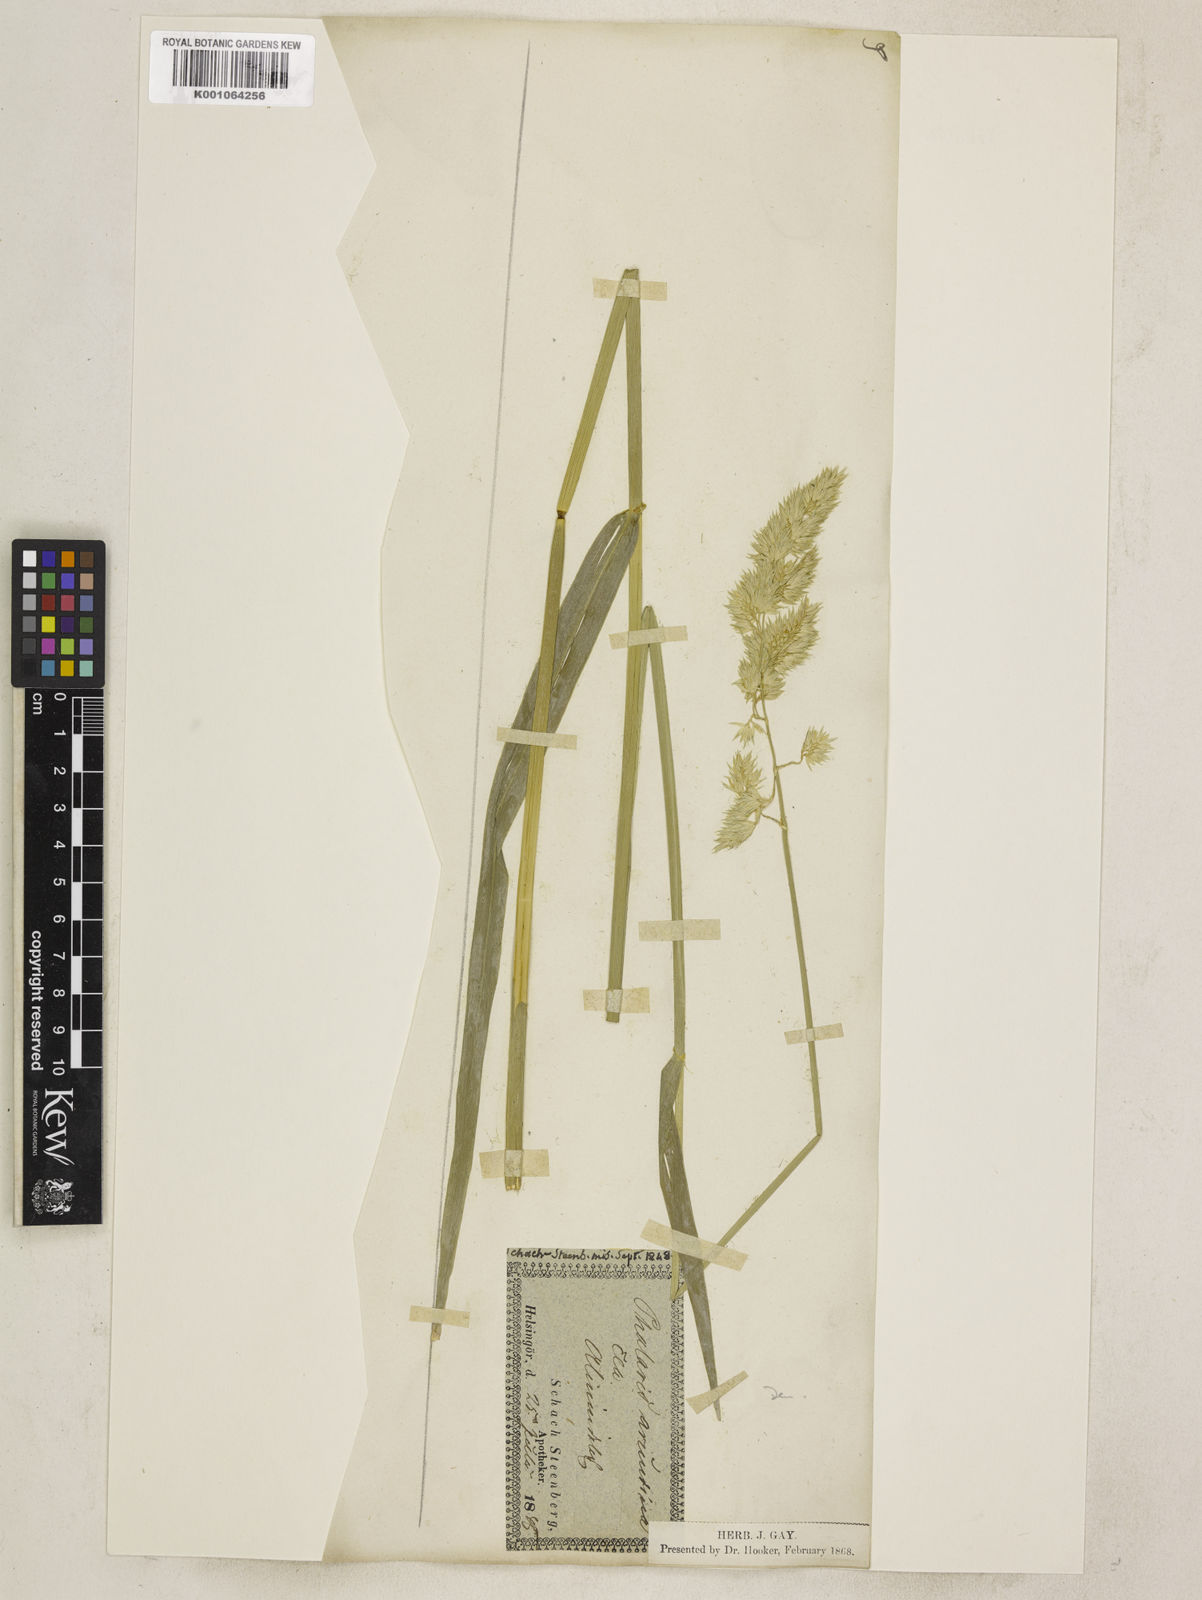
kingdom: Plantae
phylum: Tracheophyta
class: Liliopsida
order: Poales
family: Poaceae
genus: Phalaris
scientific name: Phalaris arundinacea
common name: Reed canary-grass
